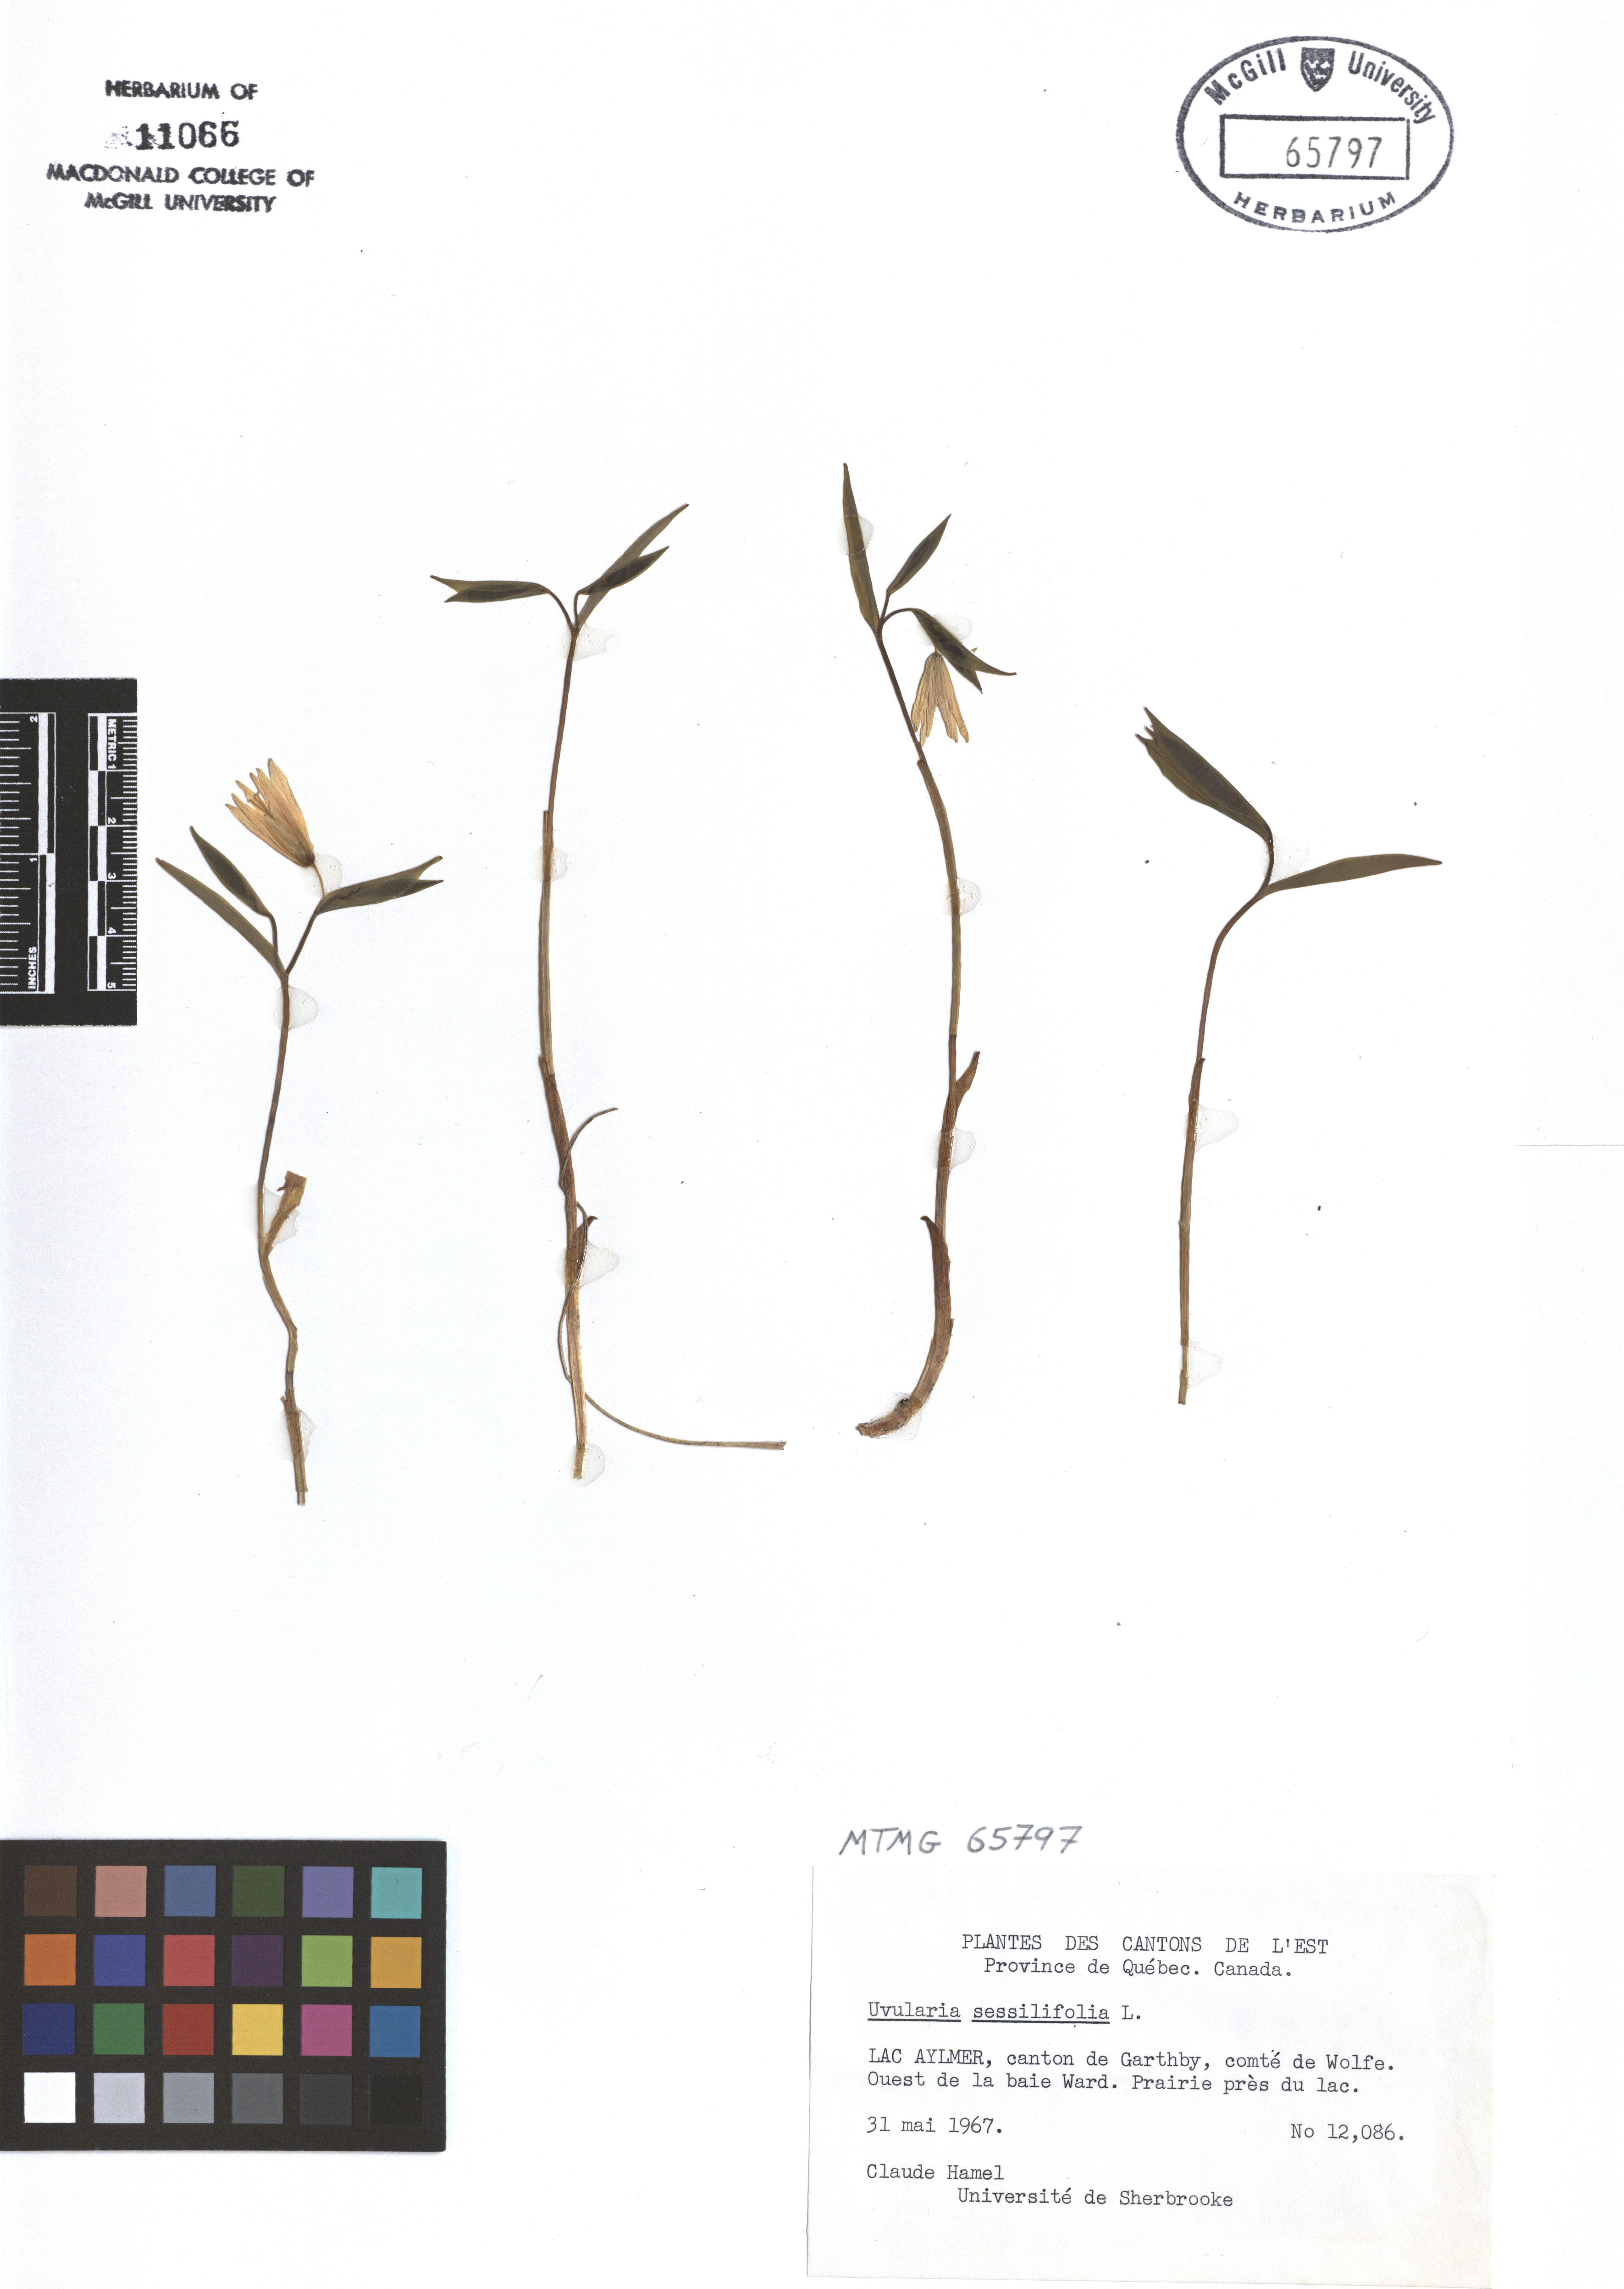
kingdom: Plantae
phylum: Tracheophyta
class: Liliopsida
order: Liliales
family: Colchicaceae
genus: Uvularia
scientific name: Uvularia sessilifolia
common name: Straw-lily
